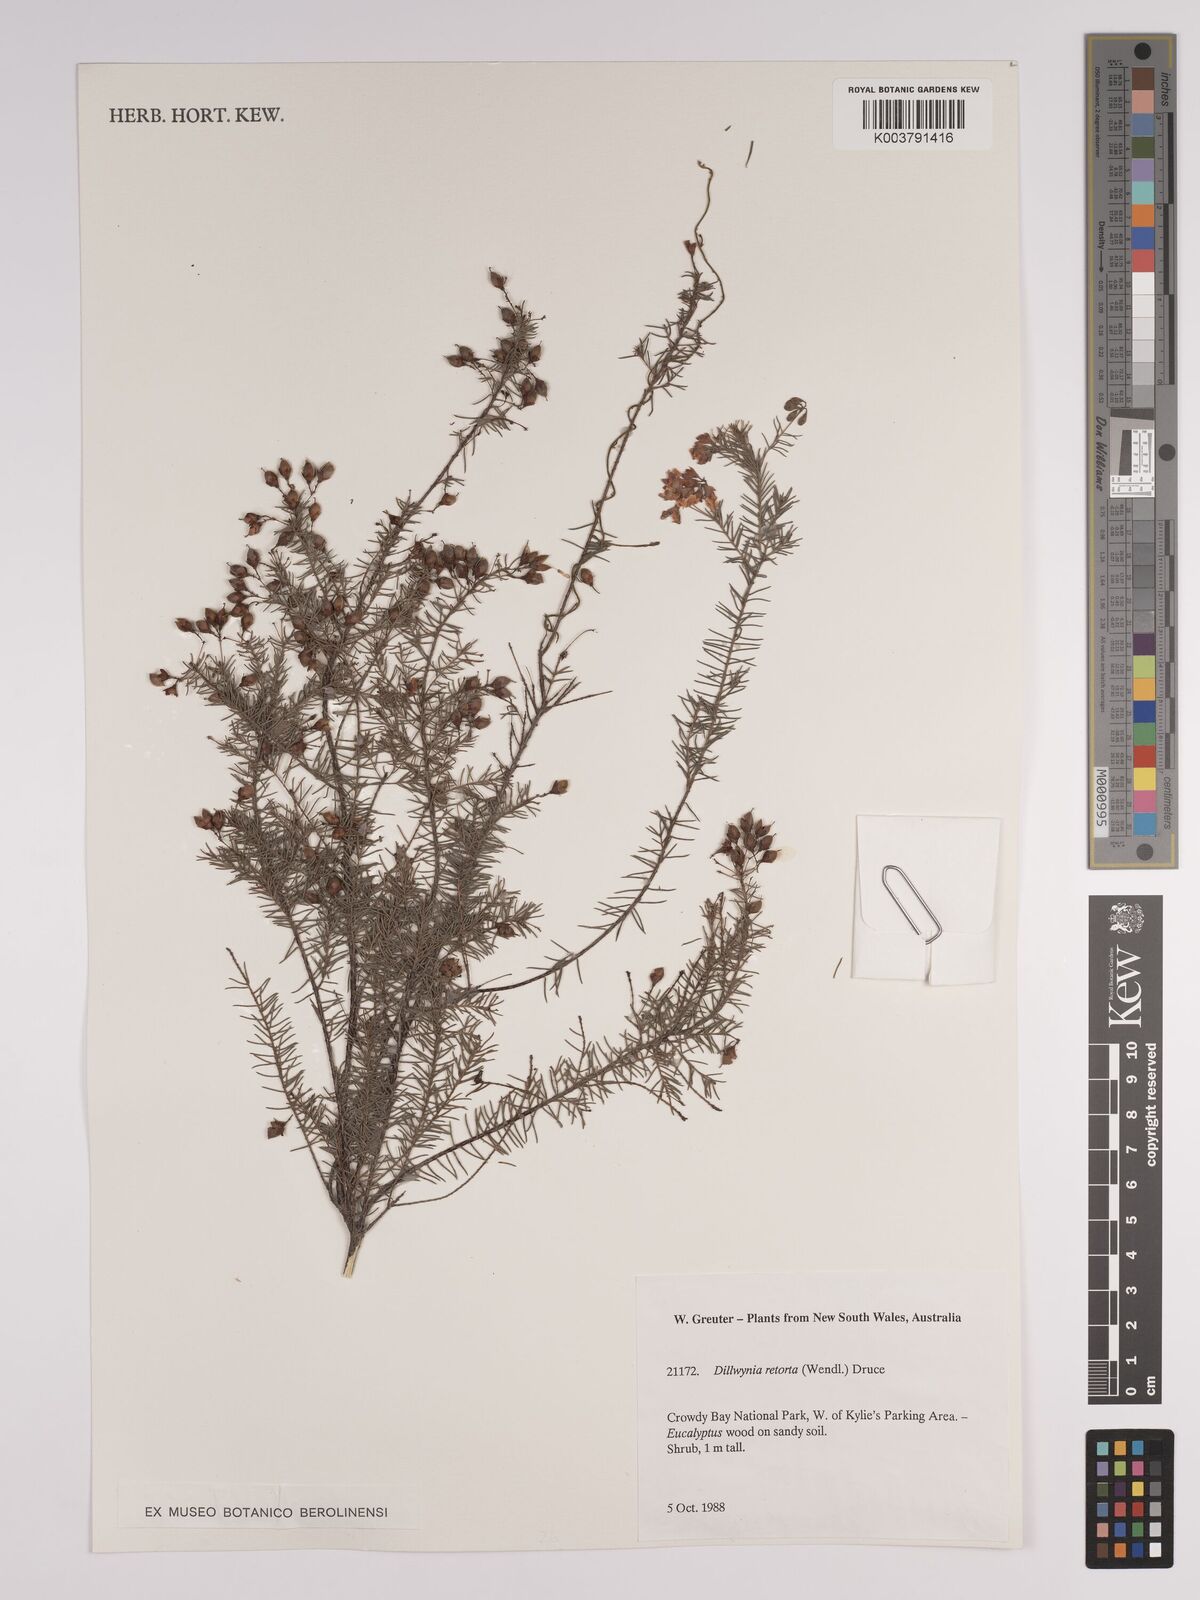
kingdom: Plantae
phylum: Tracheophyta
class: Magnoliopsida
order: Fabales
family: Fabaceae
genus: Dillwynia
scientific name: Dillwynia retorta
